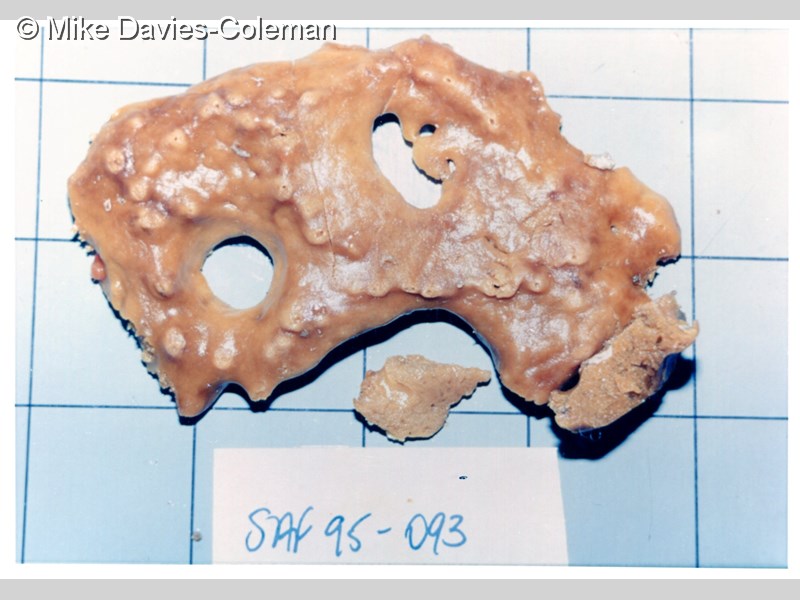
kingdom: Animalia
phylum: Porifera
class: Demospongiae
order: Poecilosclerida
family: Guitarridae
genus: Guitarra
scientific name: Guitarra fimbriata
